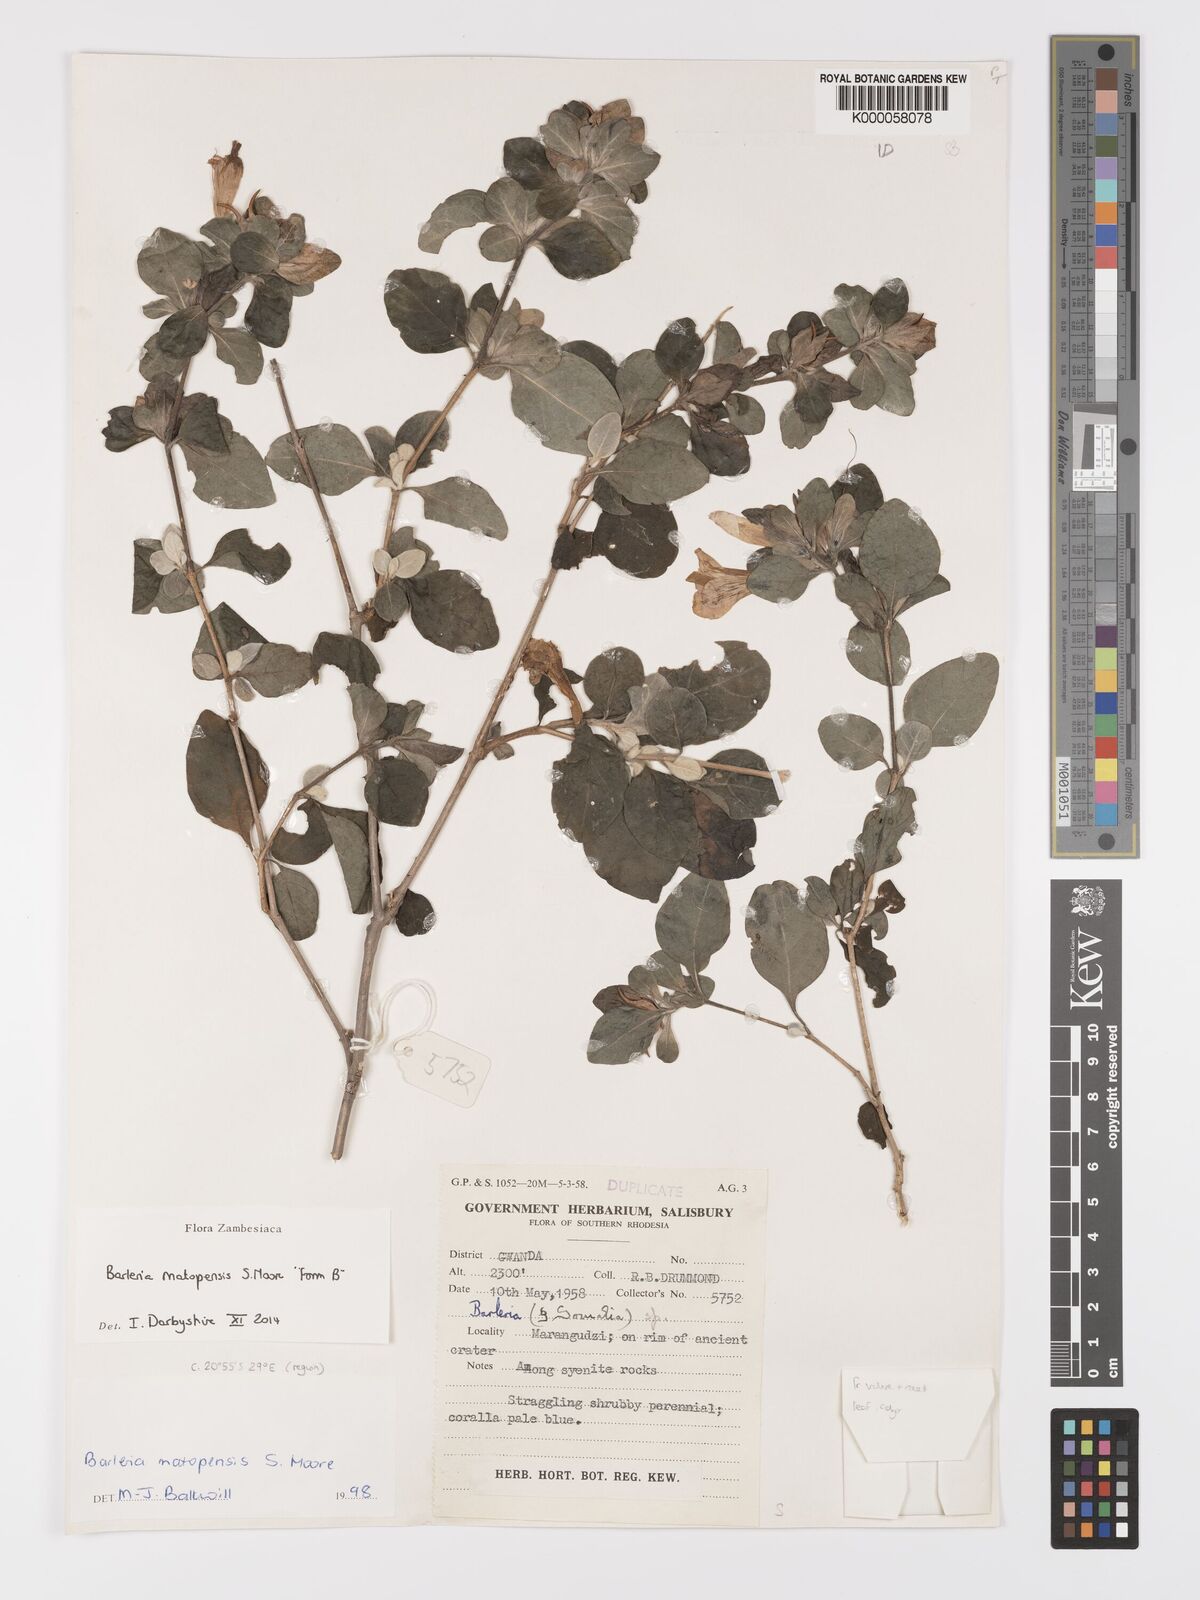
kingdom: Plantae
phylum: Tracheophyta
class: Magnoliopsida
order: Lamiales
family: Acanthaceae
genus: Barleria
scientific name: Barleria matopensis
